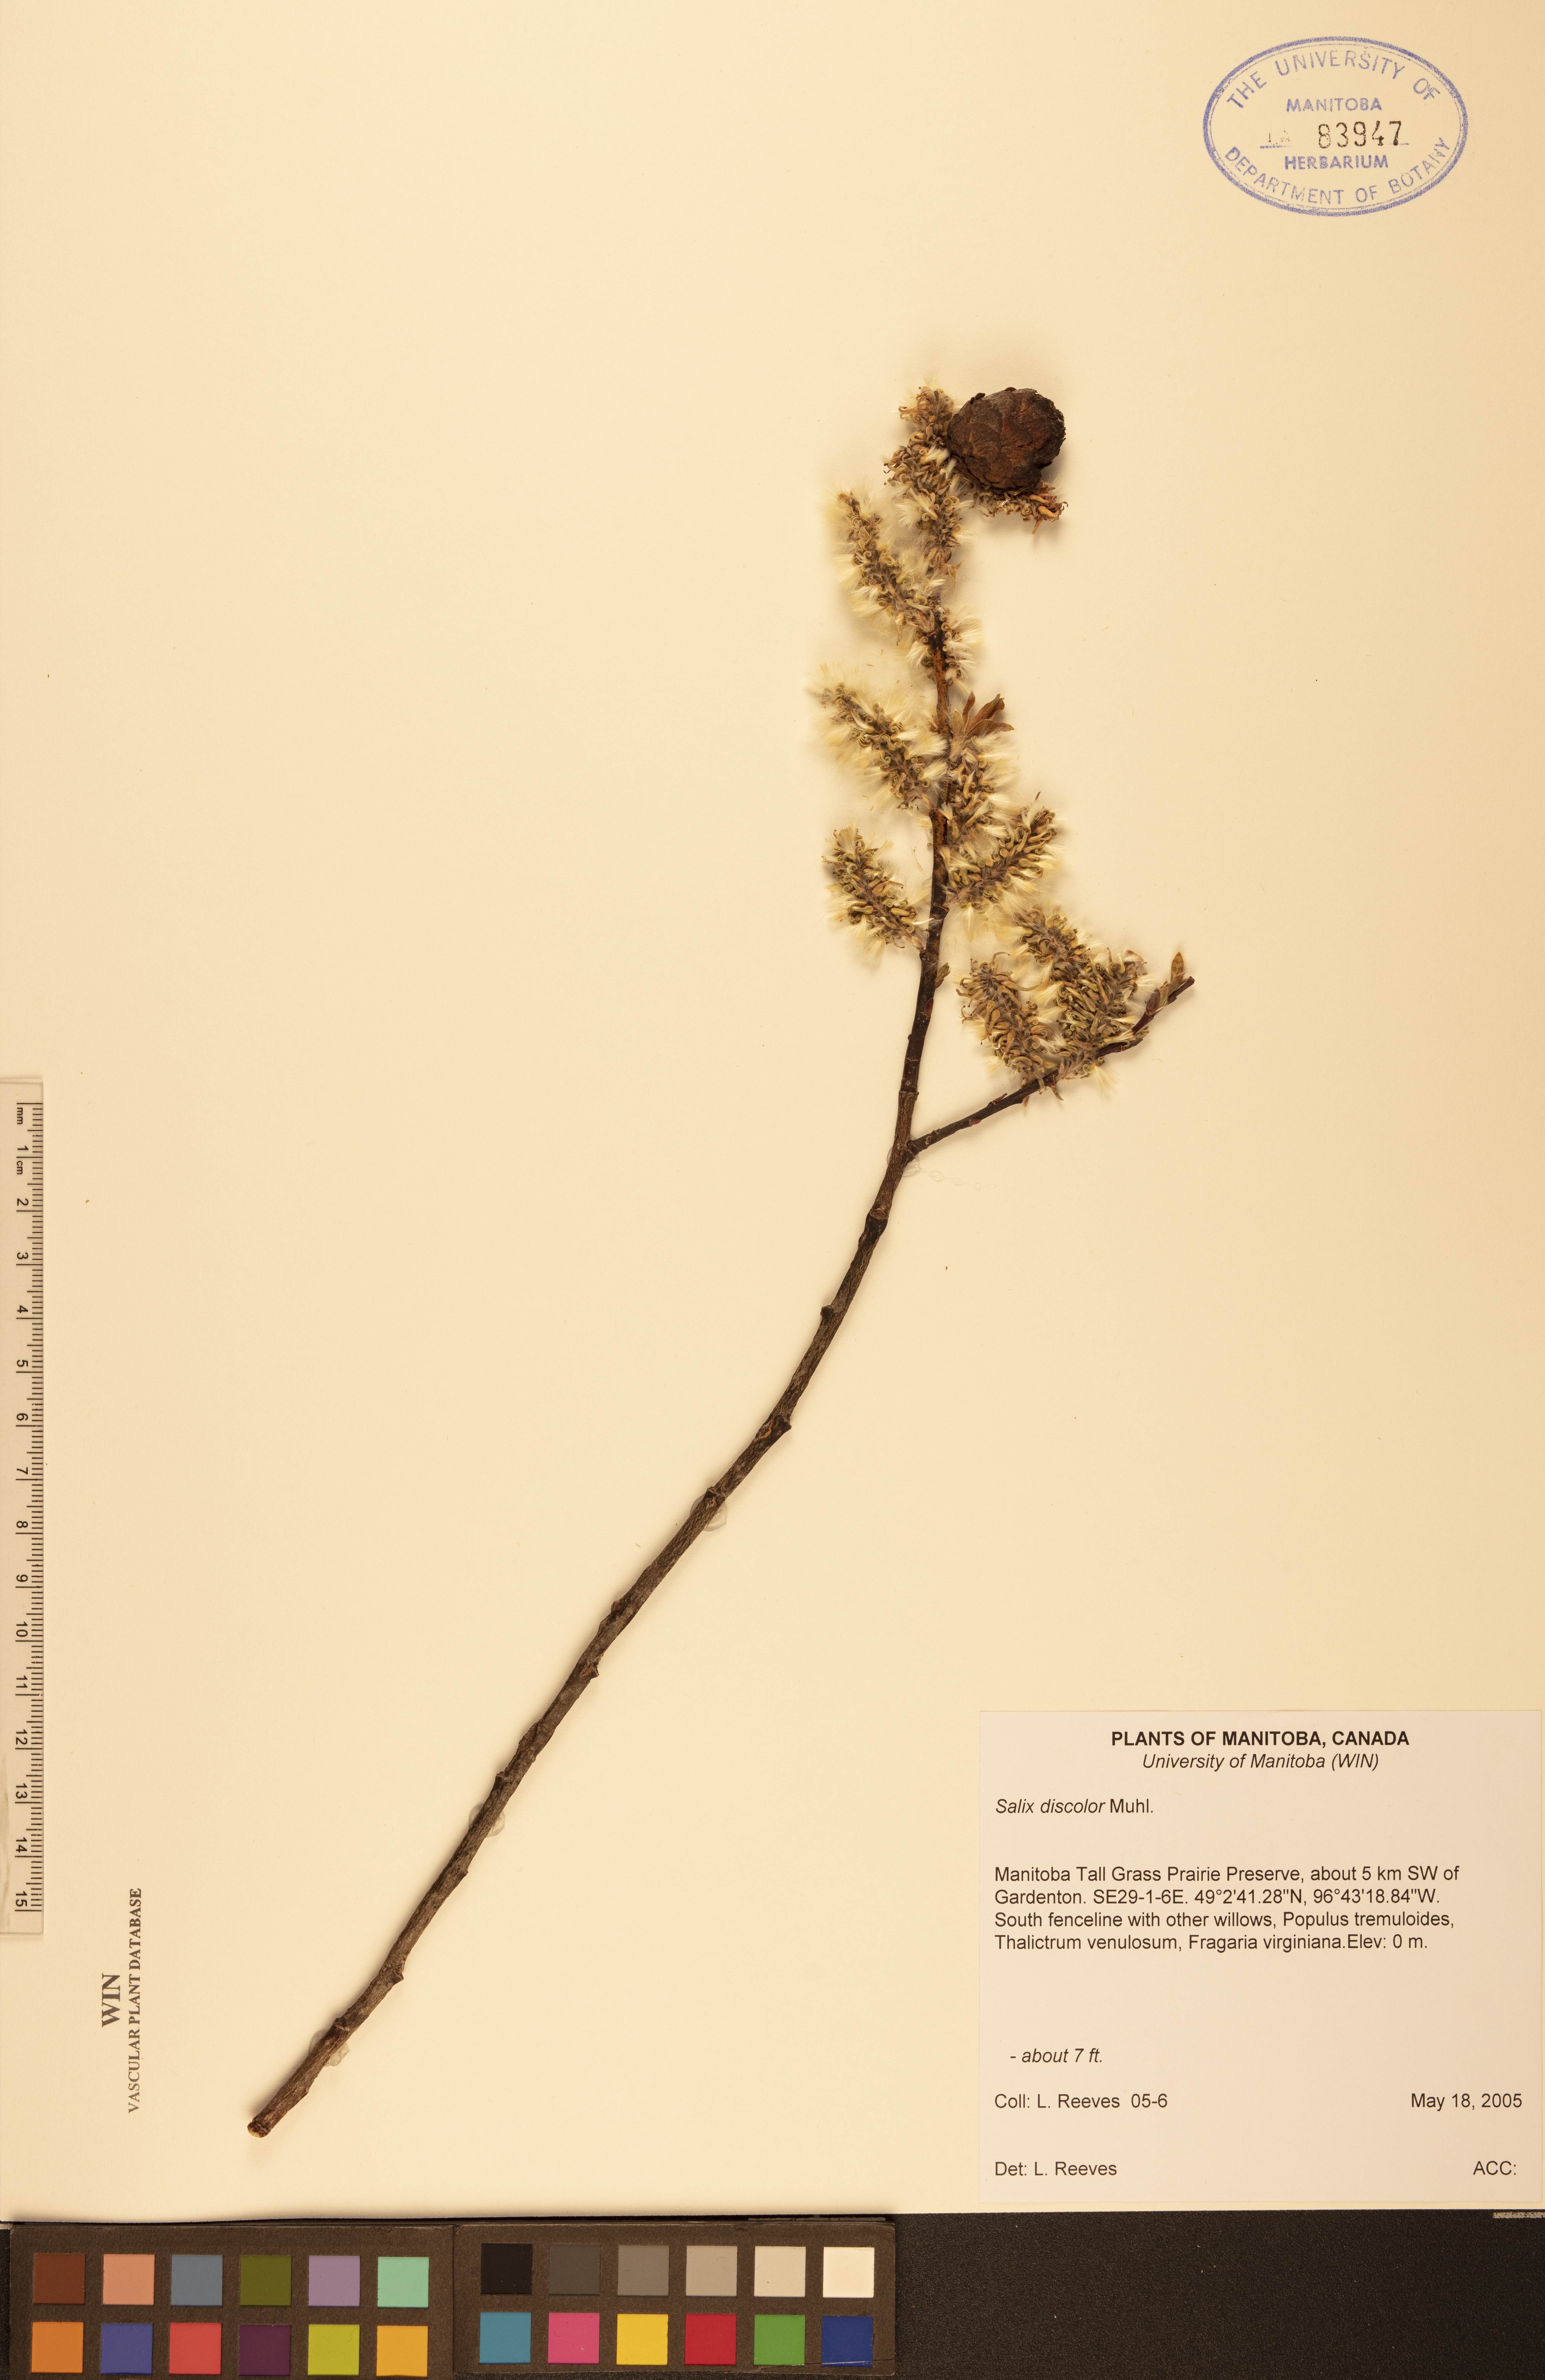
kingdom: Plantae
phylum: Tracheophyta
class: Magnoliopsida
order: Malpighiales
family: Salicaceae
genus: Salix
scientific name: Salix discolor
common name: Glaucous willow
